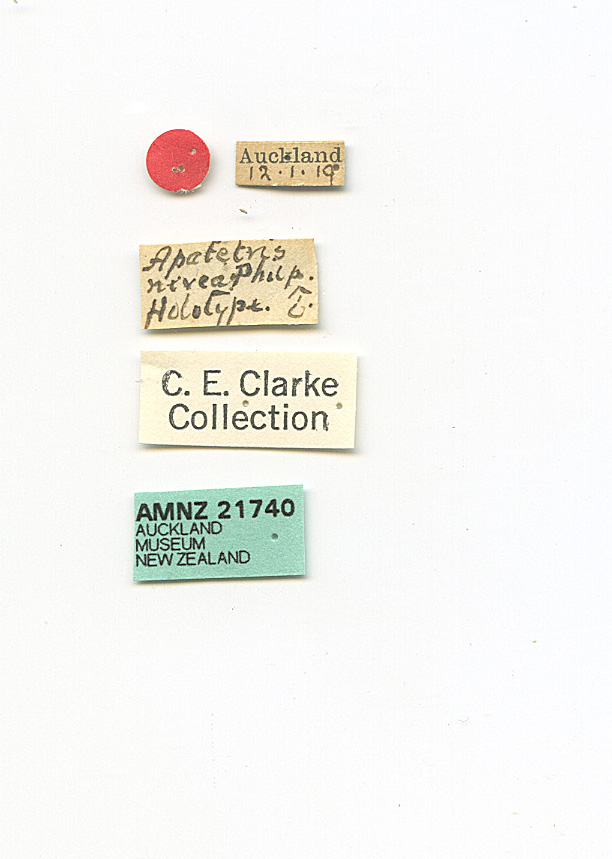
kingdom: Animalia
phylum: Arthropoda
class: Insecta
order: Lepidoptera
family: Gelechiidae
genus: Epiphthora
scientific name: Epiphthora nivea
